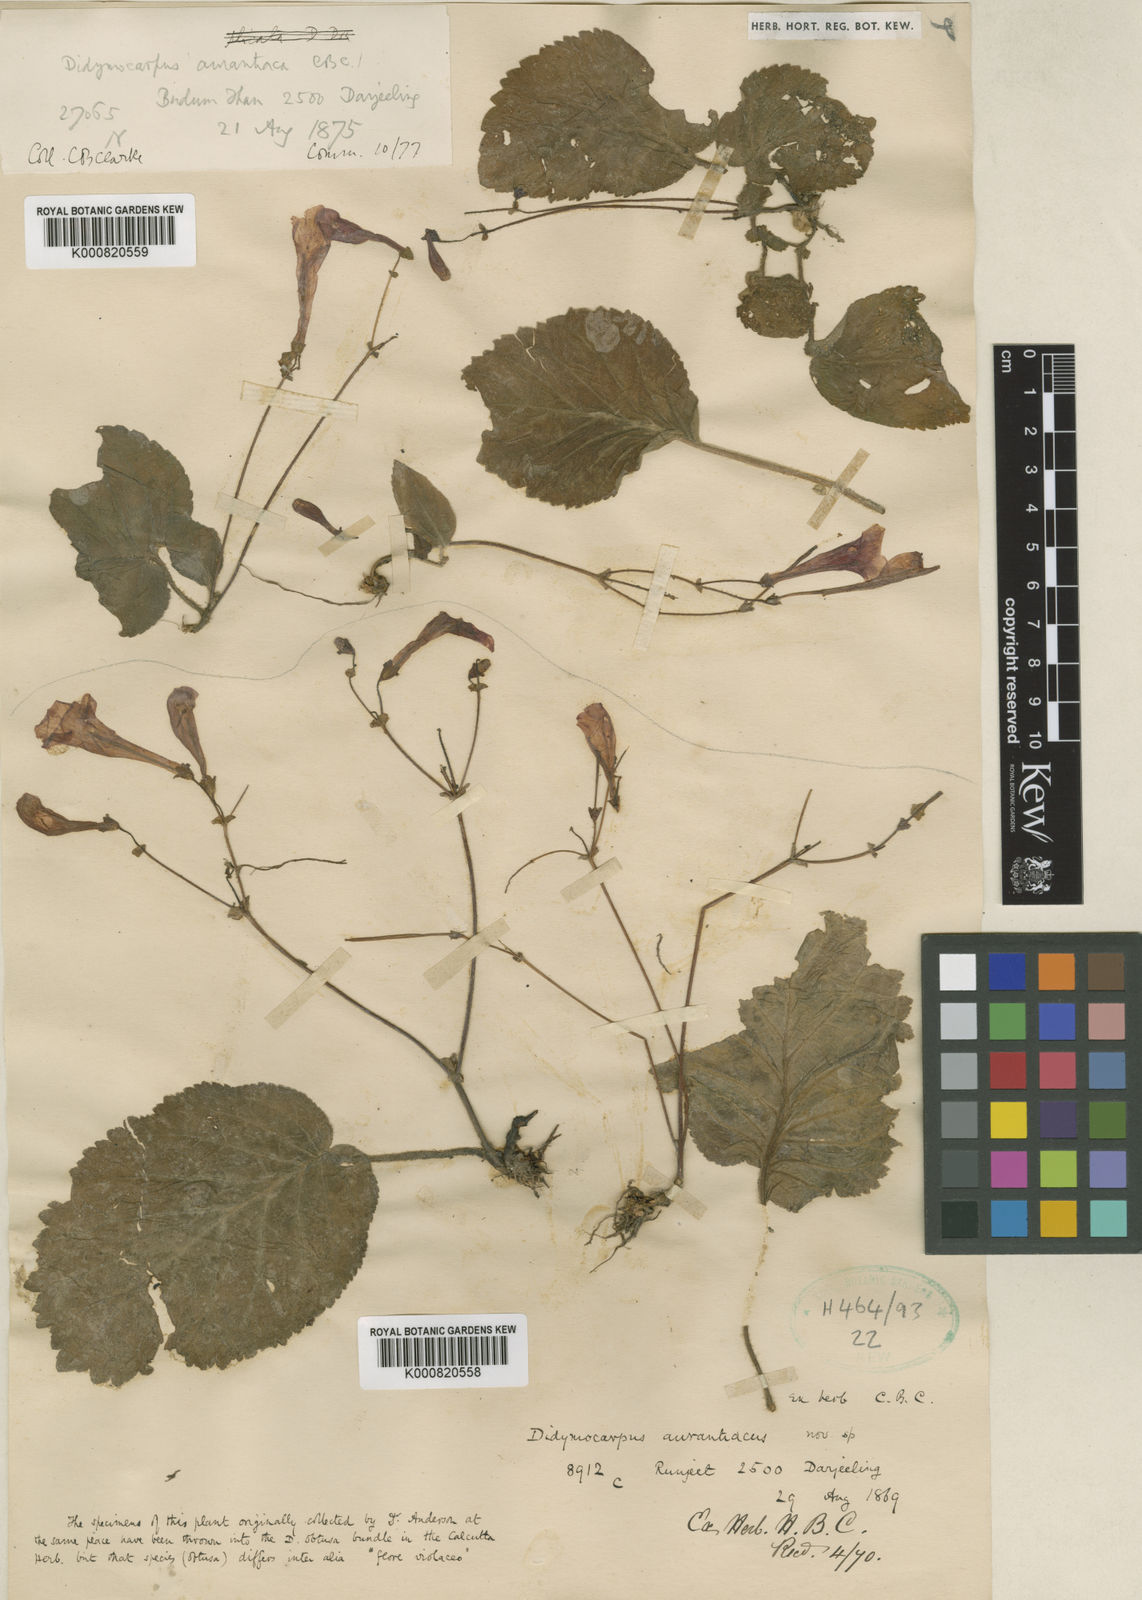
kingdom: Plantae
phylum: Tracheophyta
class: Magnoliopsida
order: Lamiales
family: Gesneriaceae
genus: Didymocarpus
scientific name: Didymocarpus aurantiacus
